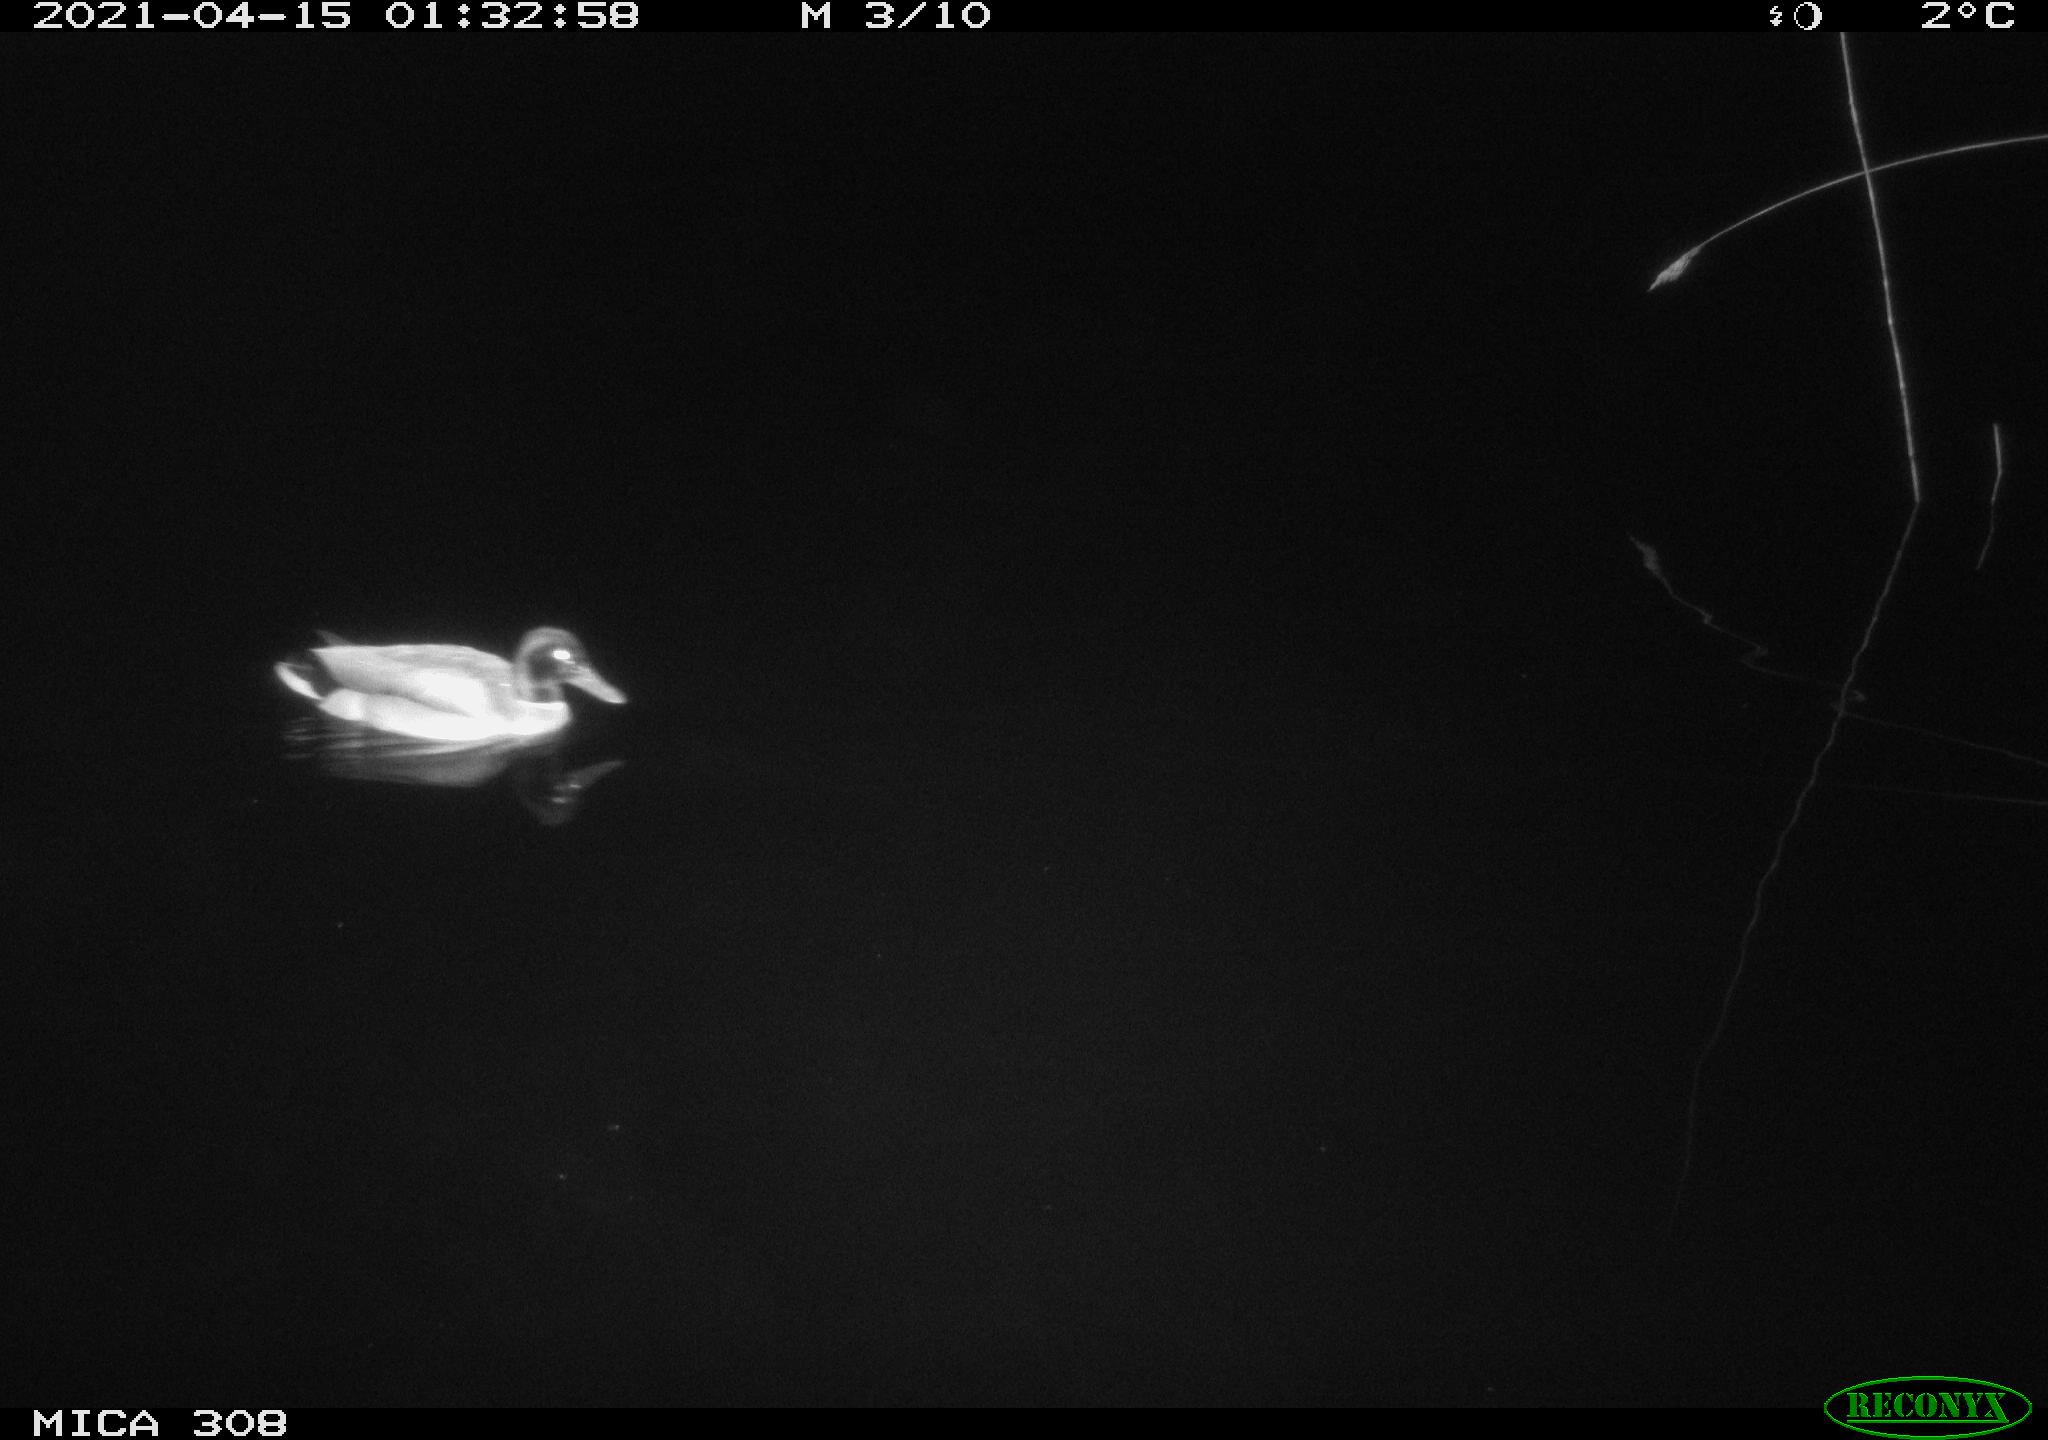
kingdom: Animalia
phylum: Chordata
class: Aves
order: Anseriformes
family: Anatidae
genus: Anas
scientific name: Anas platyrhynchos
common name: Mallard
